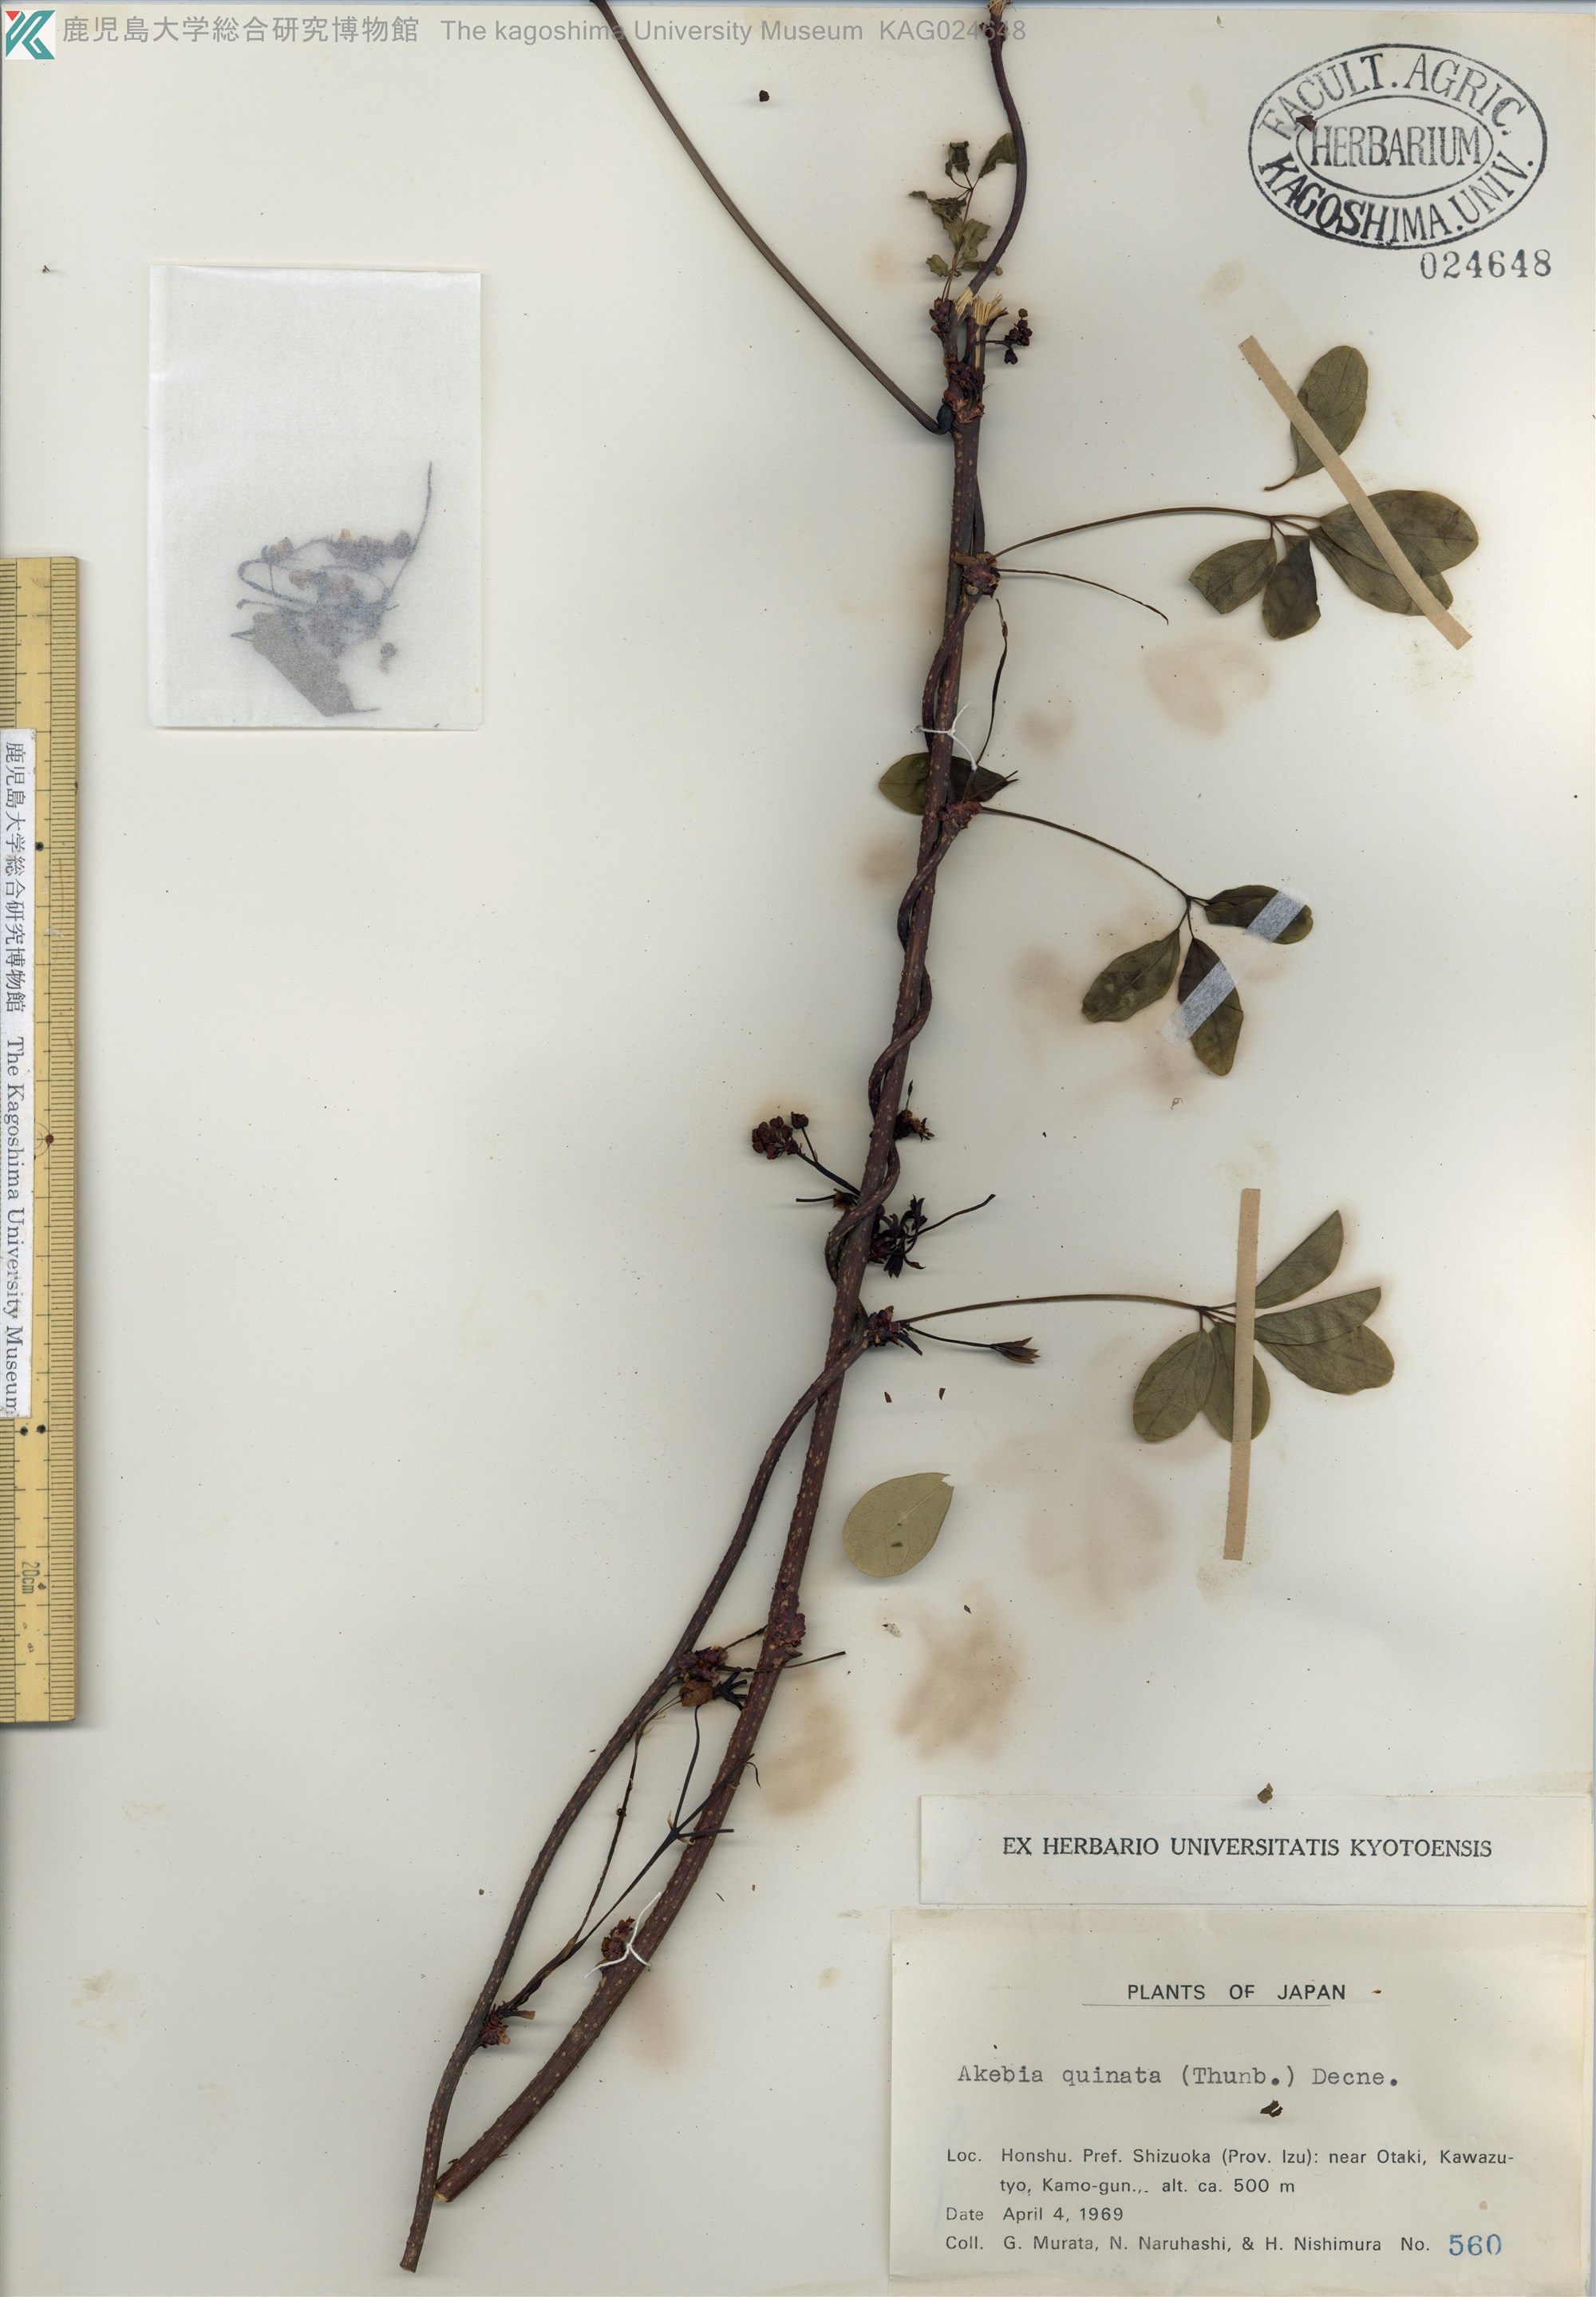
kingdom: Plantae
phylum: Tracheophyta
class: Magnoliopsida
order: Ranunculales
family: Lardizabalaceae
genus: Akebia
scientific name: Akebia quinata
